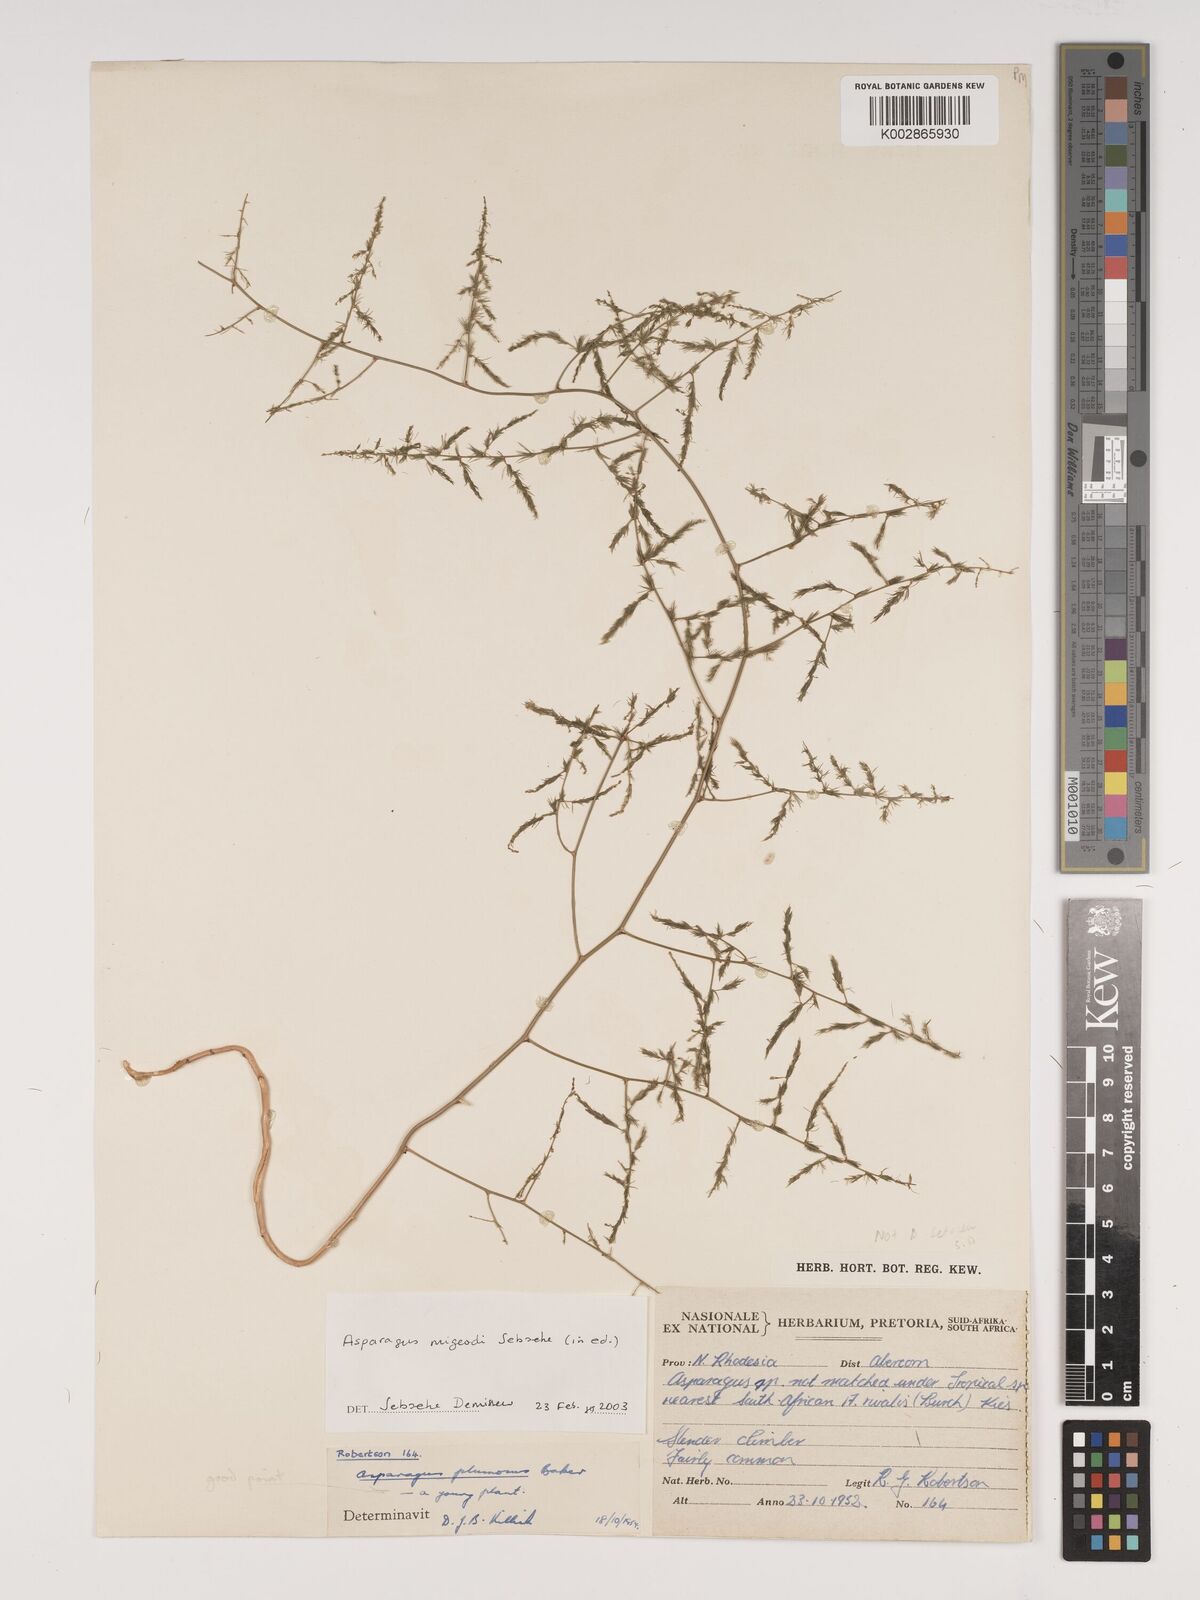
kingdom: Plantae
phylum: Tracheophyta
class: Liliopsida
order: Asparagales
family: Asparagaceae
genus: Asparagus
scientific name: Asparagus migeodii
